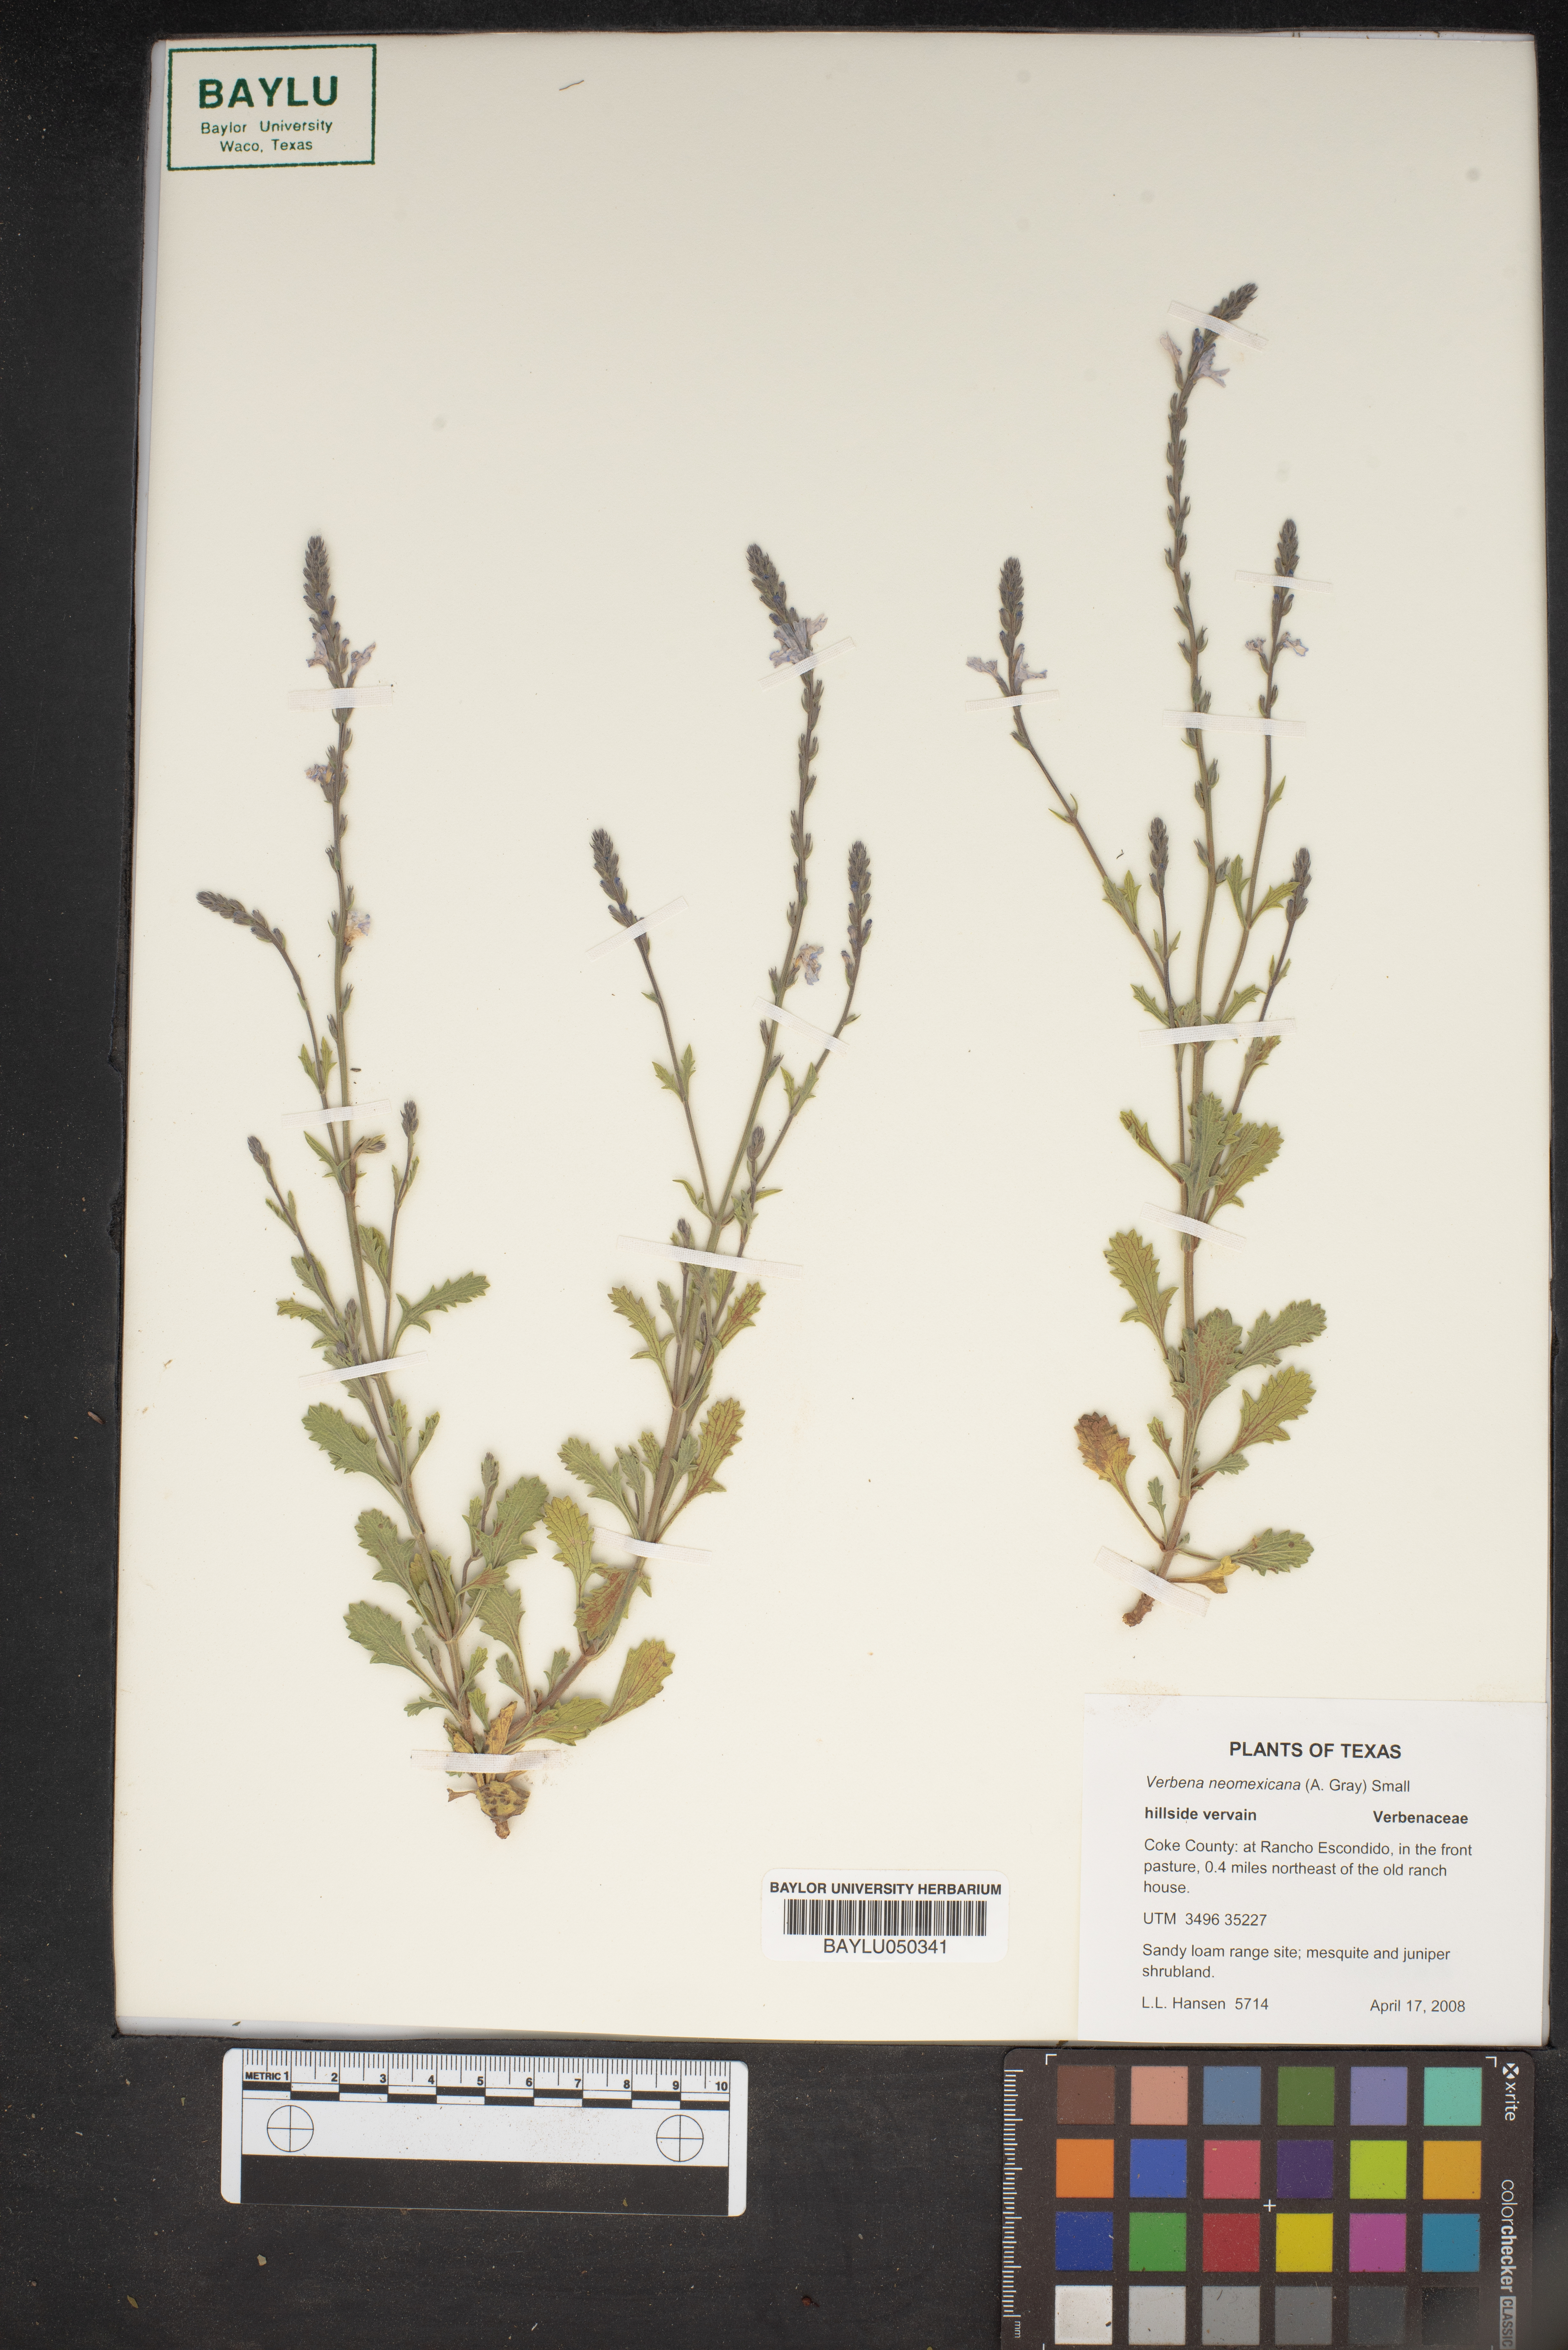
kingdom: Plantae
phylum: Tracheophyta
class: Magnoliopsida
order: Lamiales
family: Verbenaceae
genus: Verbena
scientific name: Verbena neomexicana
